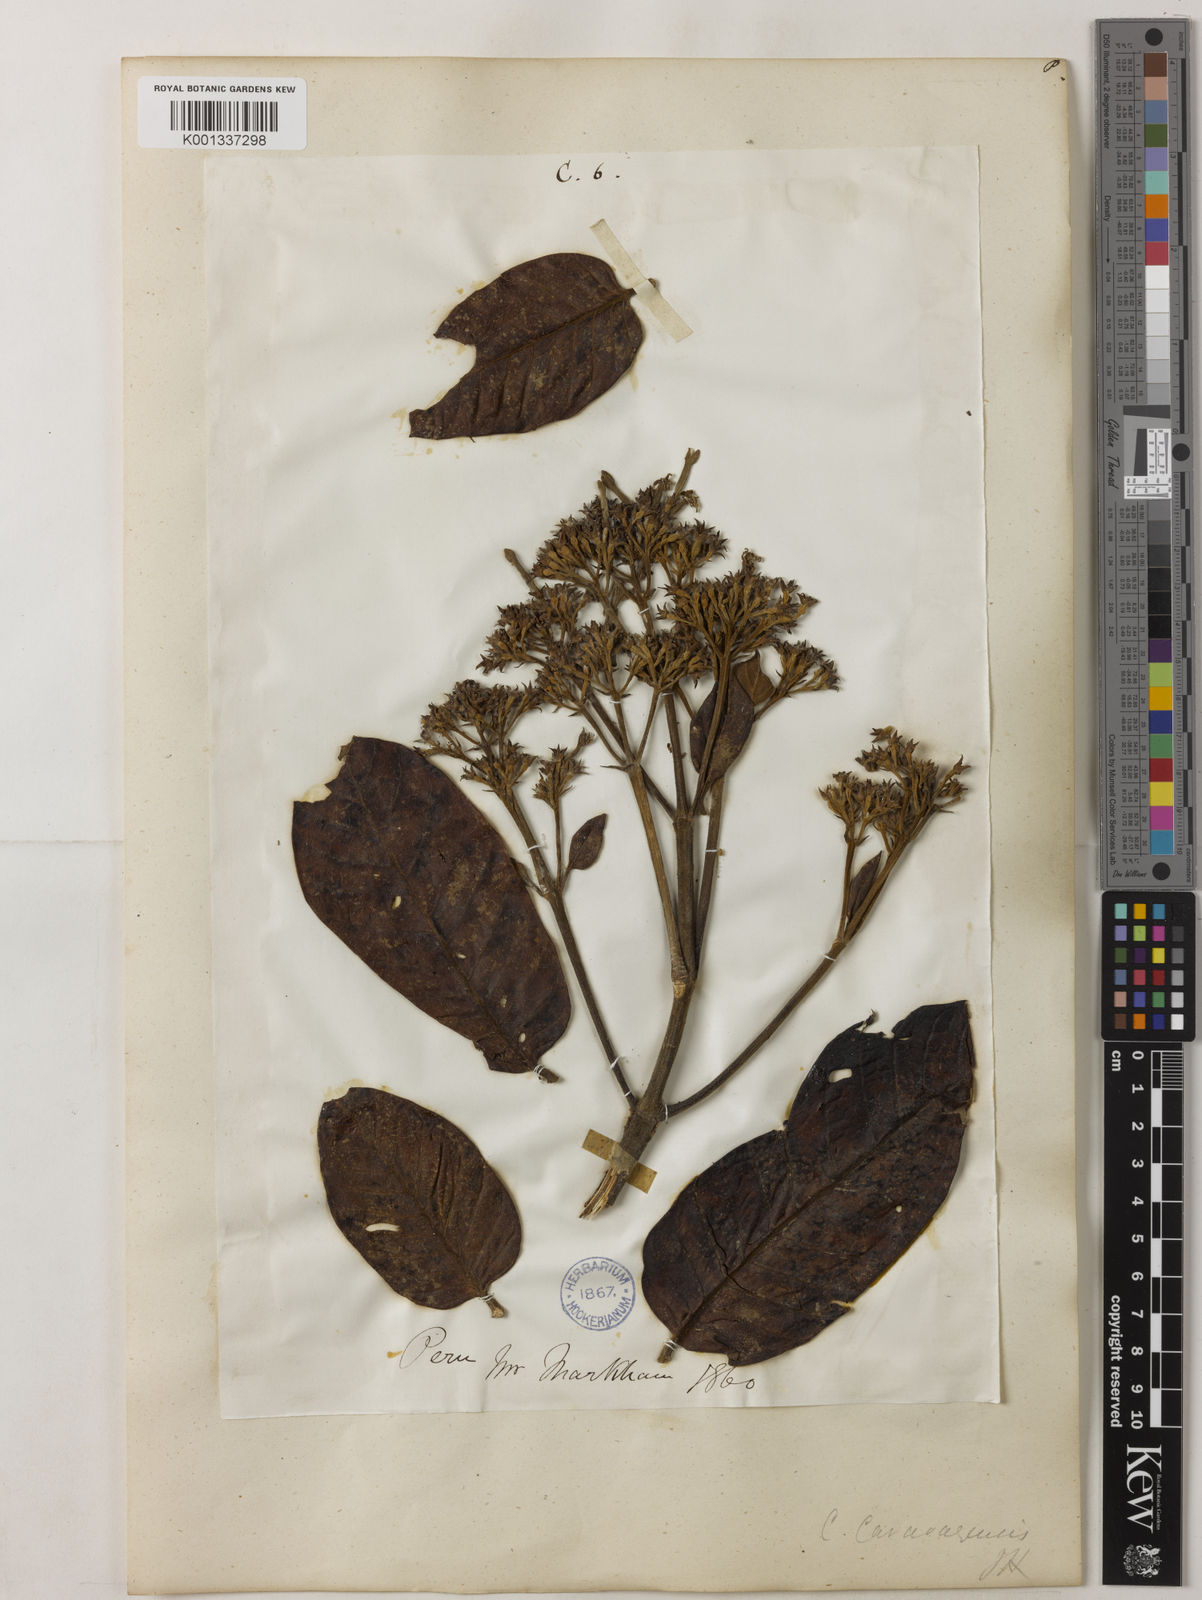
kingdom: Plantae
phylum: Tracheophyta
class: Magnoliopsida
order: Gentianales
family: Rubiaceae
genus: Cinchona
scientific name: Cinchona calisaya
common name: Ledgerbark
